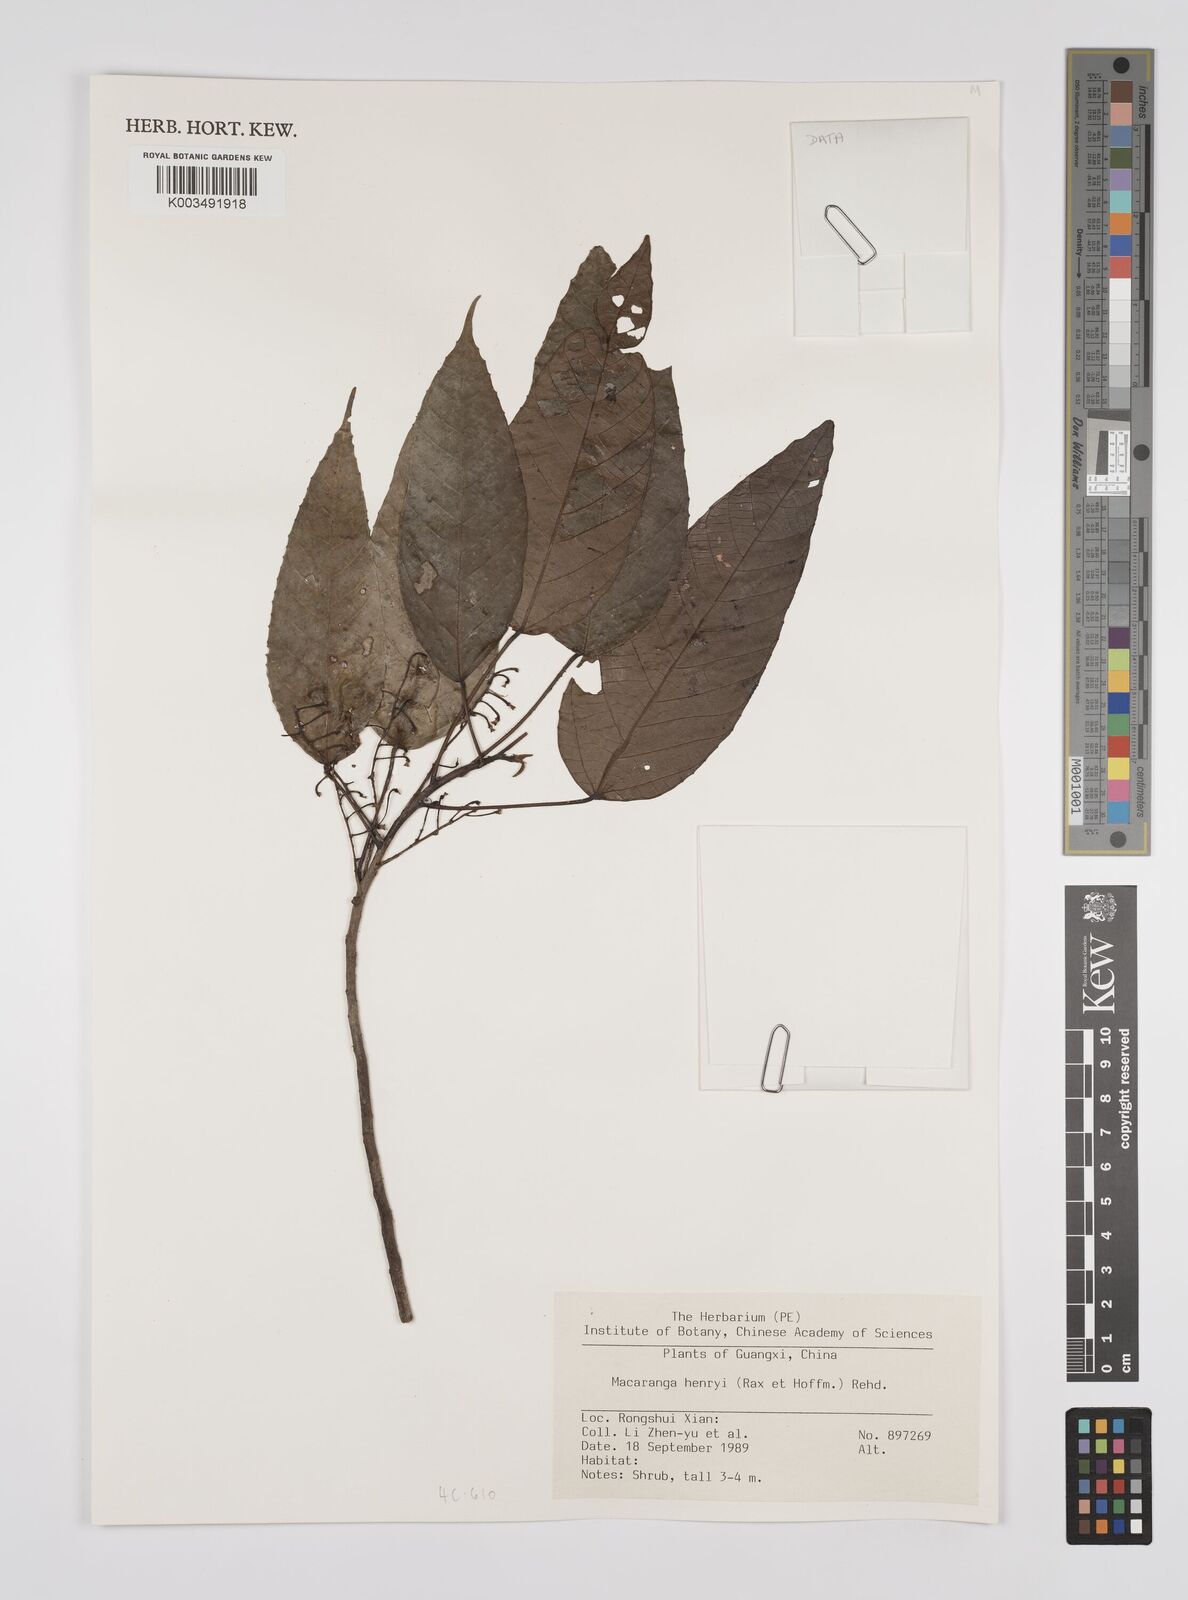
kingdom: Plantae
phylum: Tracheophyta
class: Magnoliopsida
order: Malpighiales
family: Euphorbiaceae
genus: Macaranga
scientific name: Macaranga henryi
